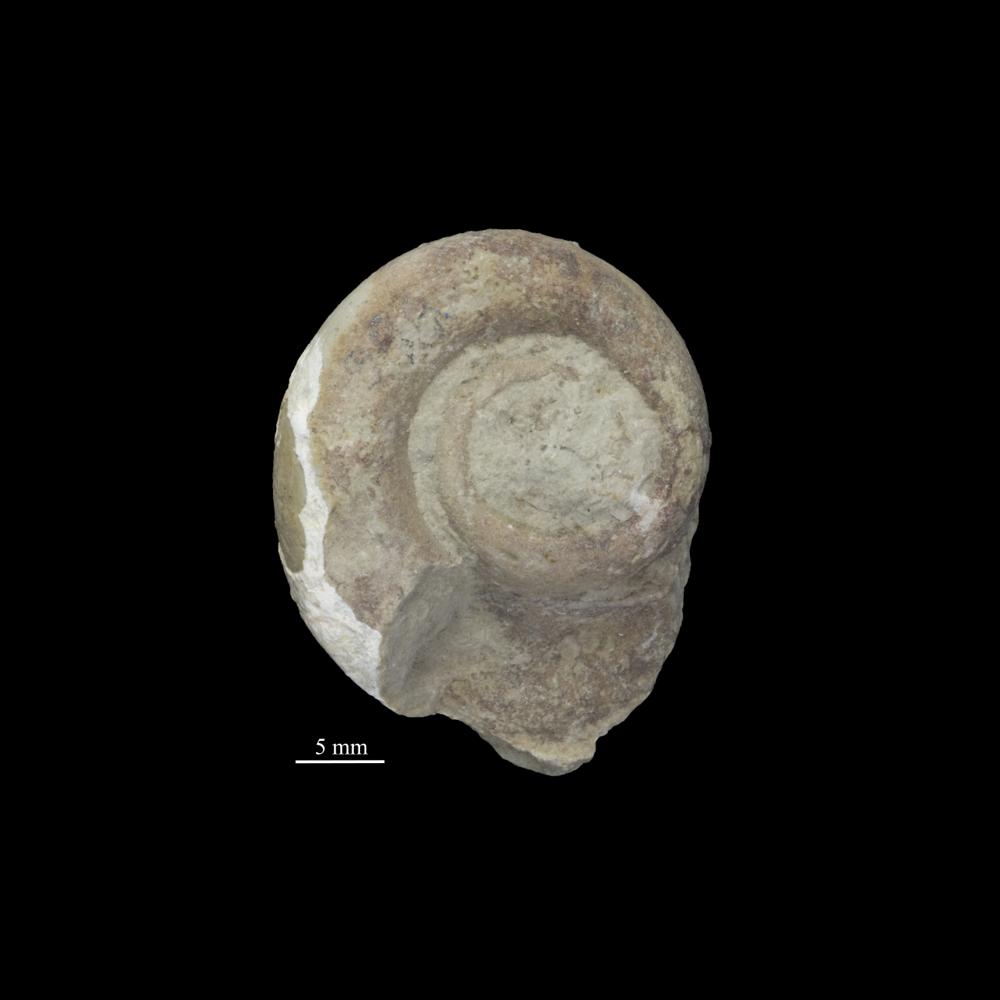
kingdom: Animalia
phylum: Mollusca
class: Gastropoda
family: Lesueurillidae
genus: Mestoronema
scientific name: Mestoronema Euomphalus marginalis
